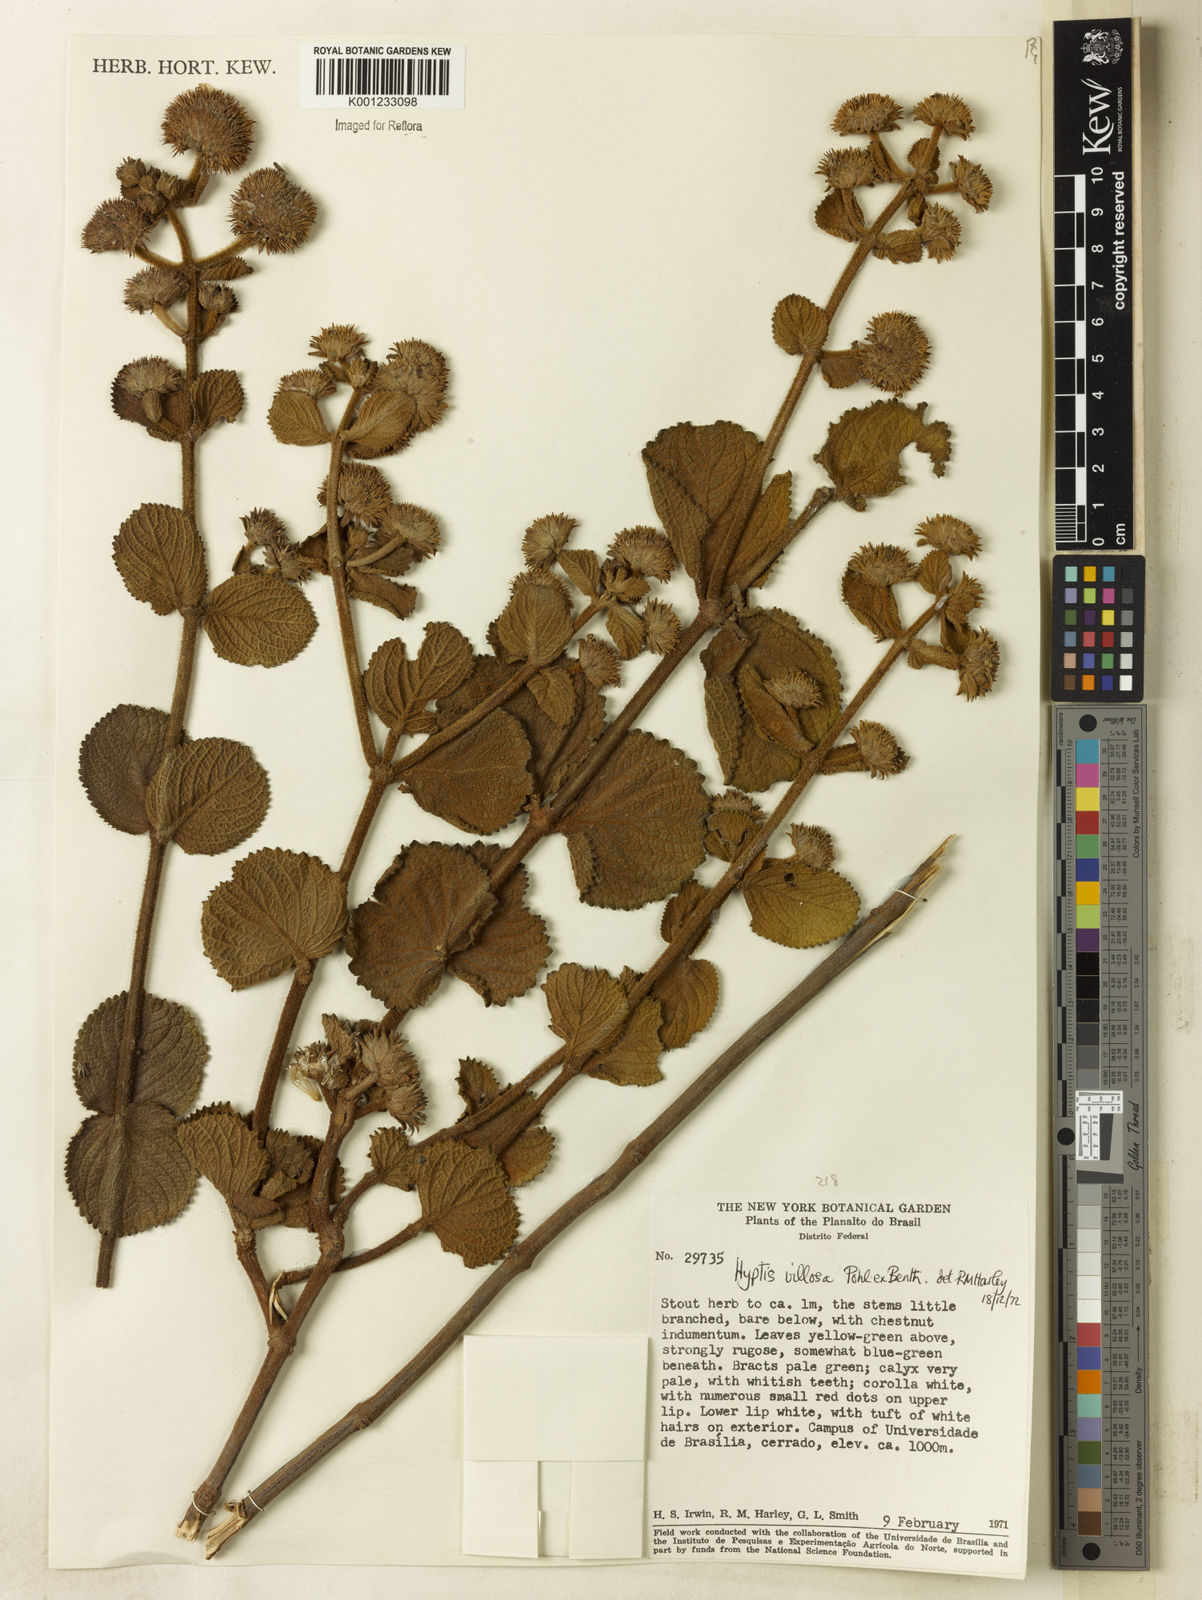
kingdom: Plantae
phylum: Tracheophyta
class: Magnoliopsida
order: Lamiales
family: Lamiaceae
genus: Hyptis
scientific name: Hyptis villosa
